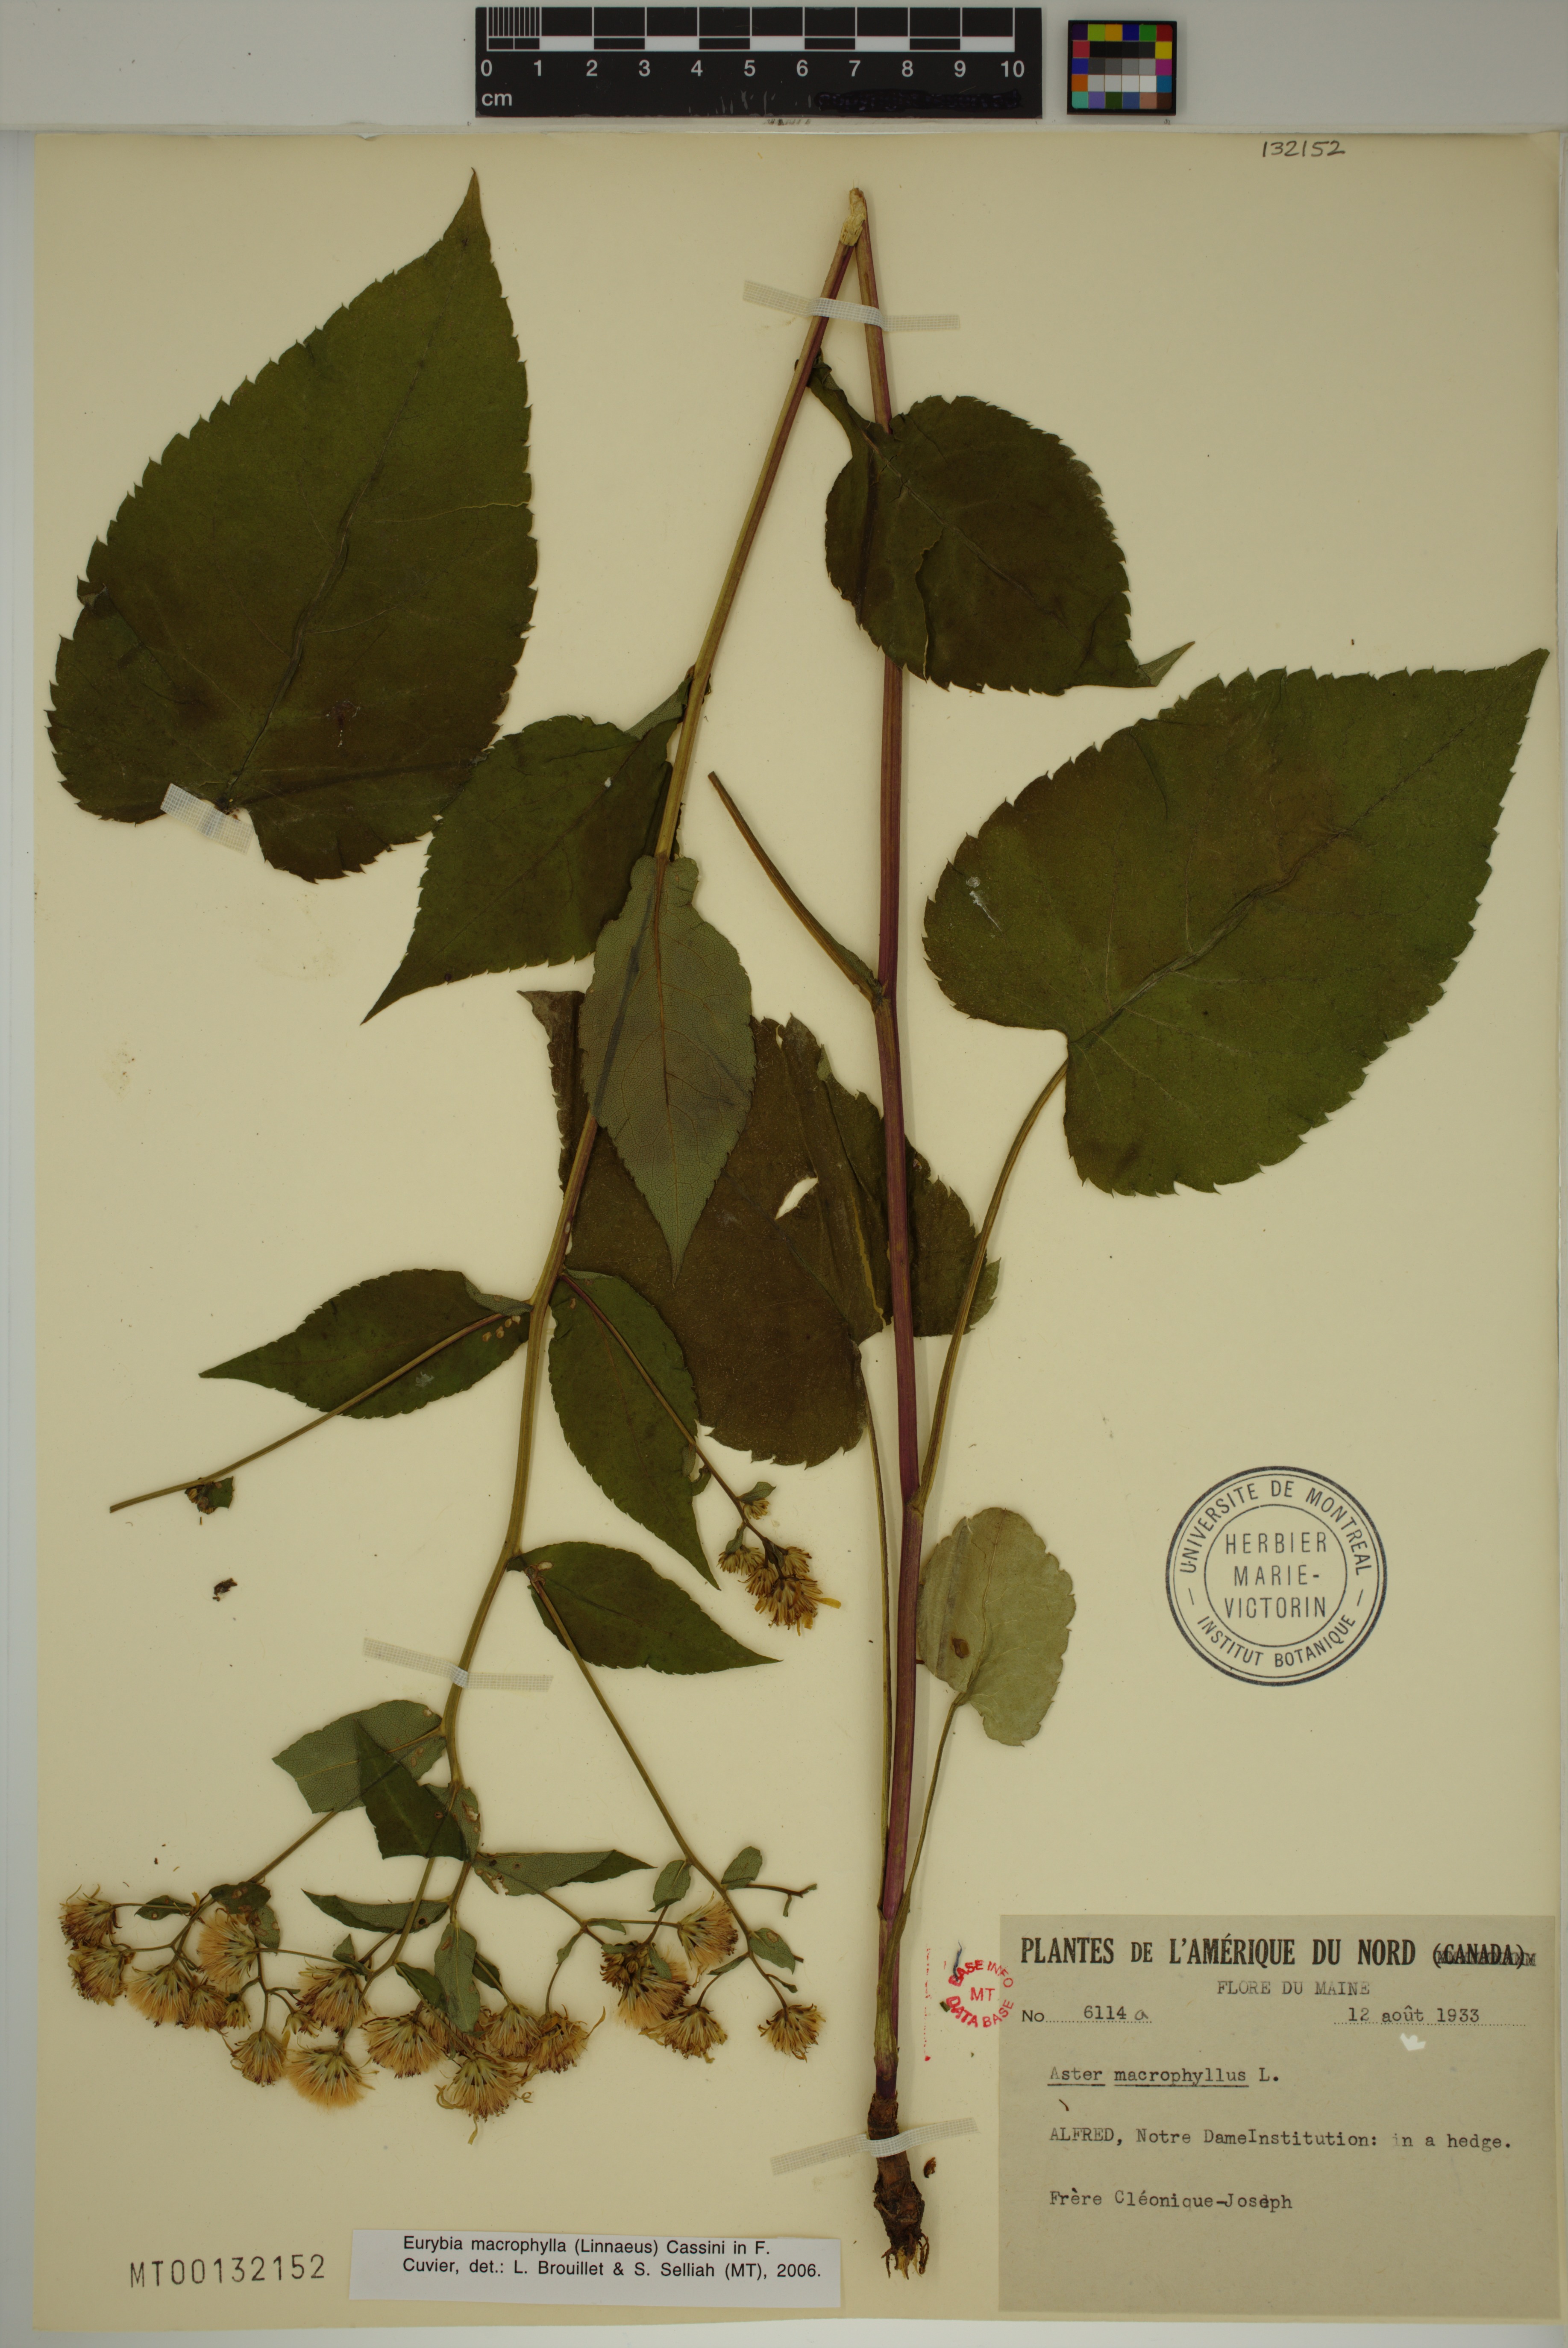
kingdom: Plantae
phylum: Tracheophyta
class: Magnoliopsida
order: Asterales
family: Asteraceae
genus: Eurybia
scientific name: Eurybia macrophylla
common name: Big-leaved aster
